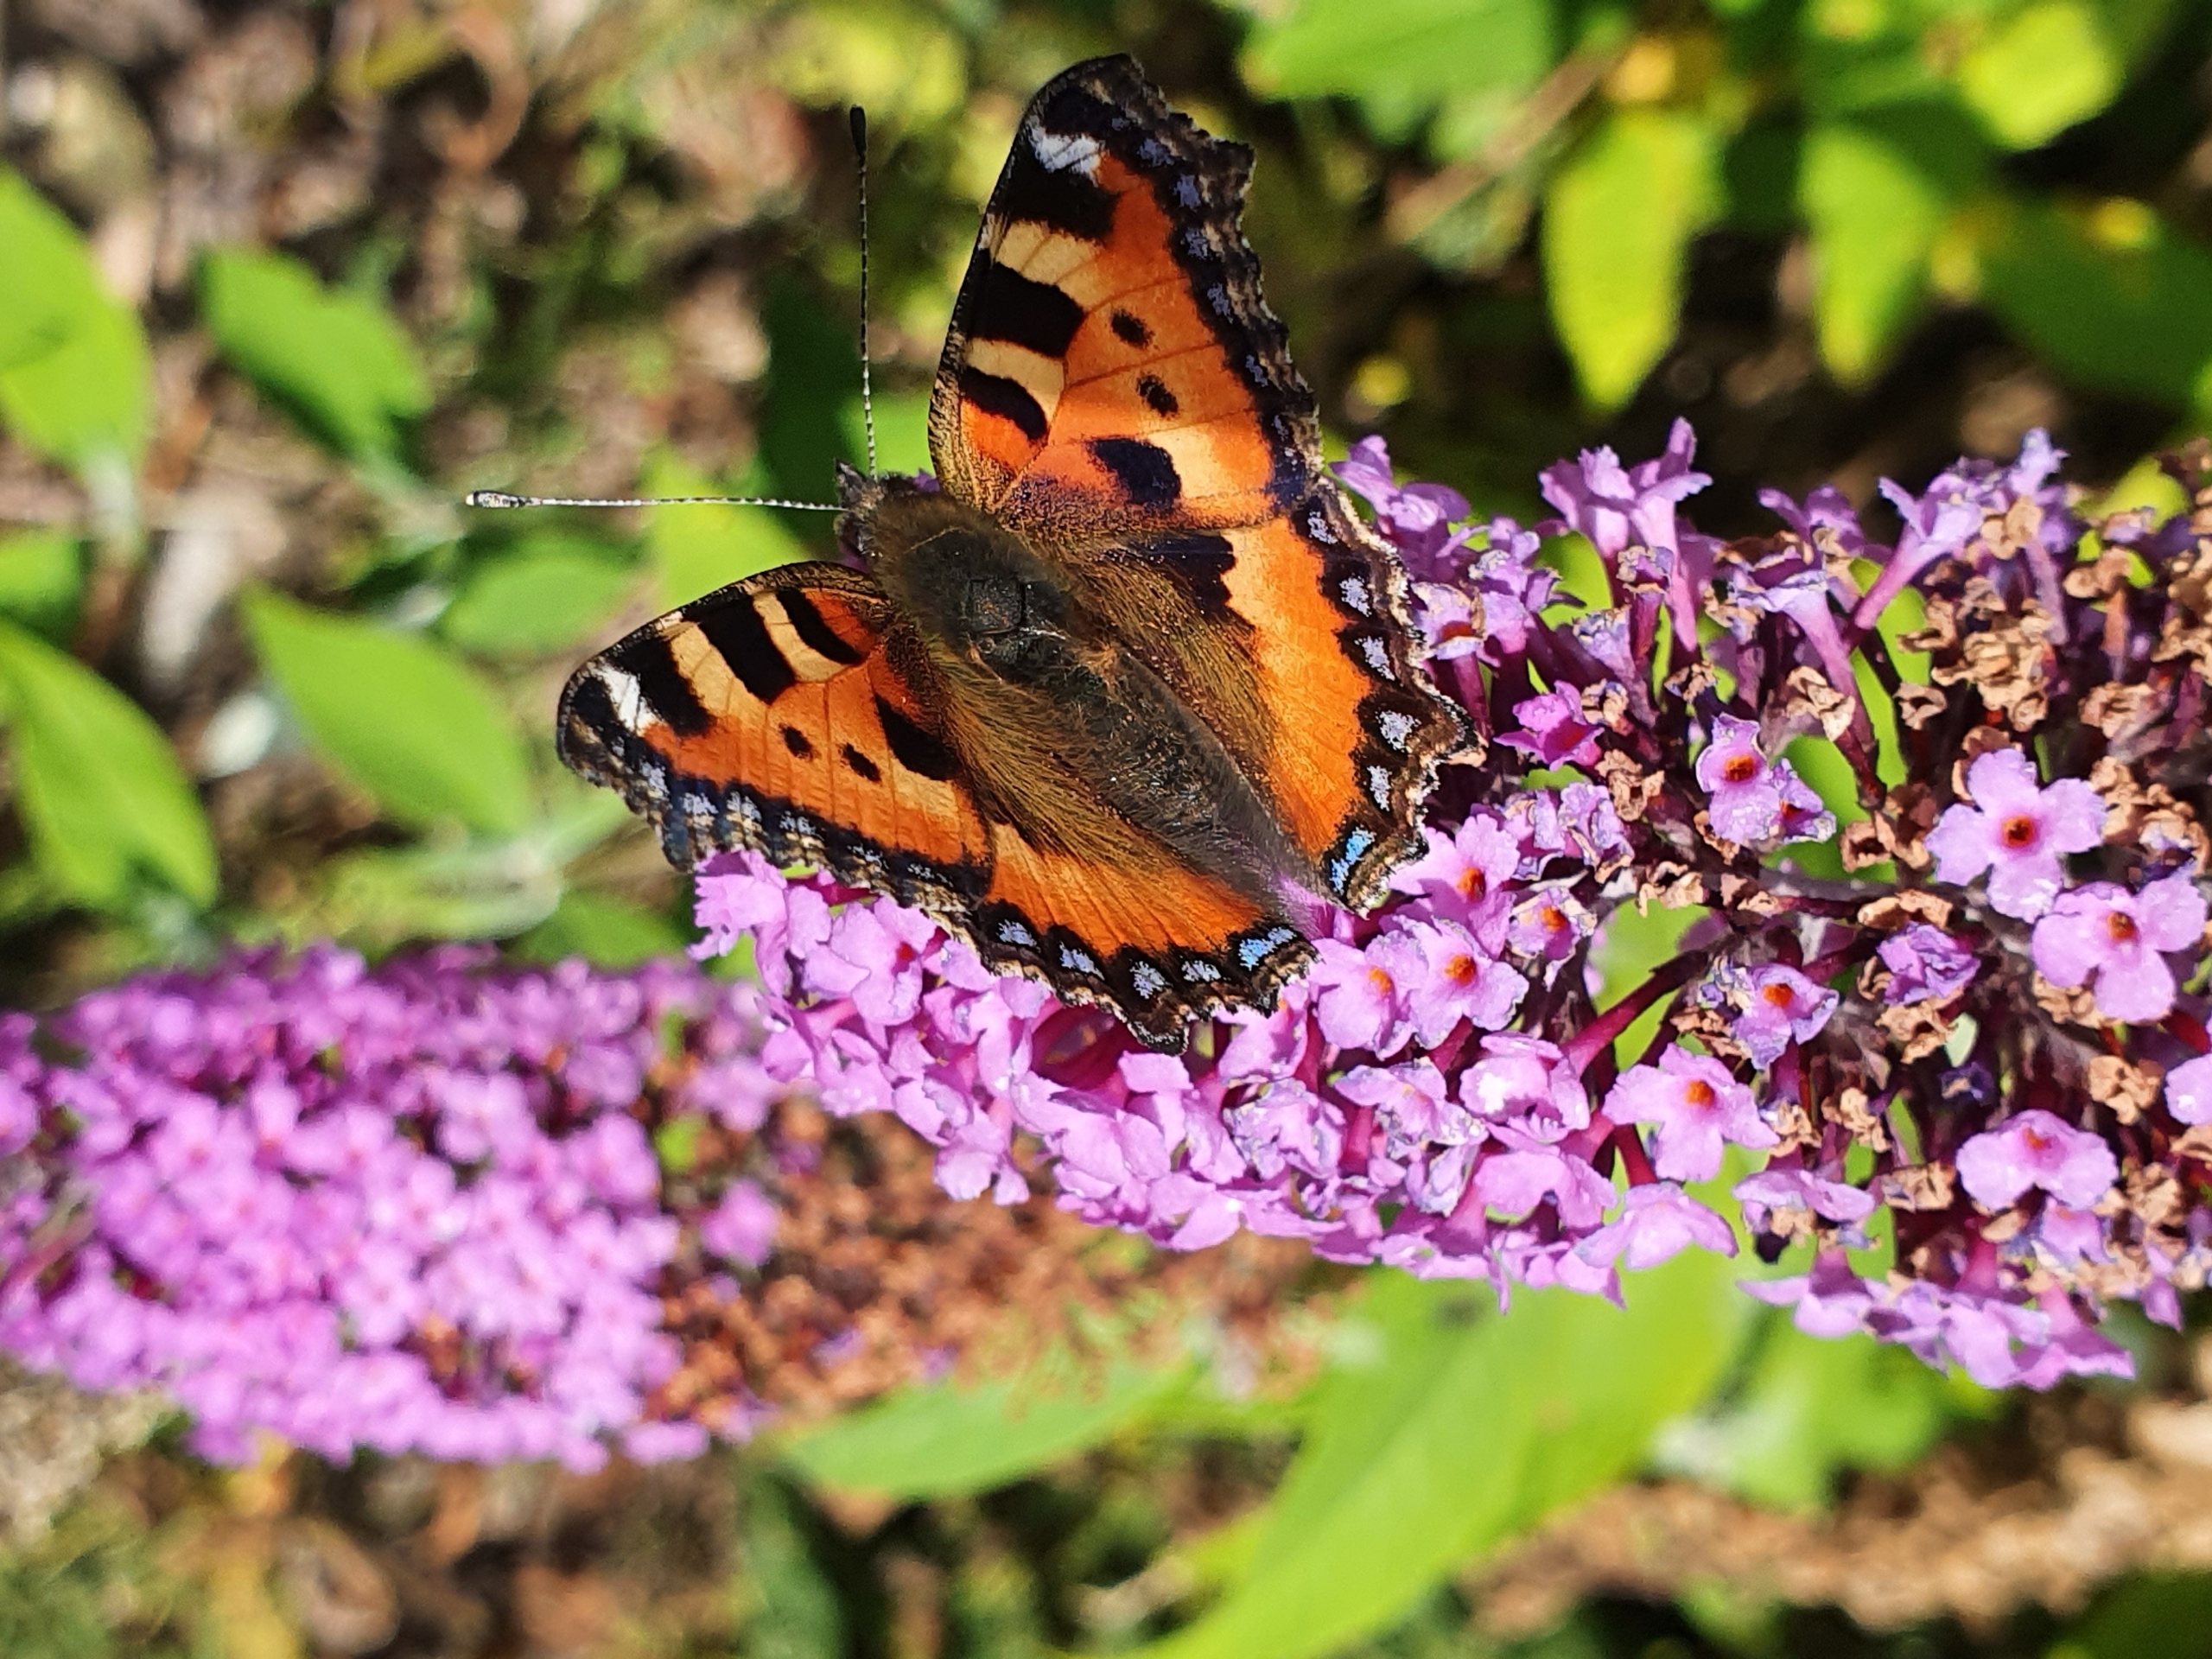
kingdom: Animalia
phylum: Arthropoda
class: Insecta
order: Lepidoptera
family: Nymphalidae
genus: Aglais
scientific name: Aglais urticae
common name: Nældens takvinge
